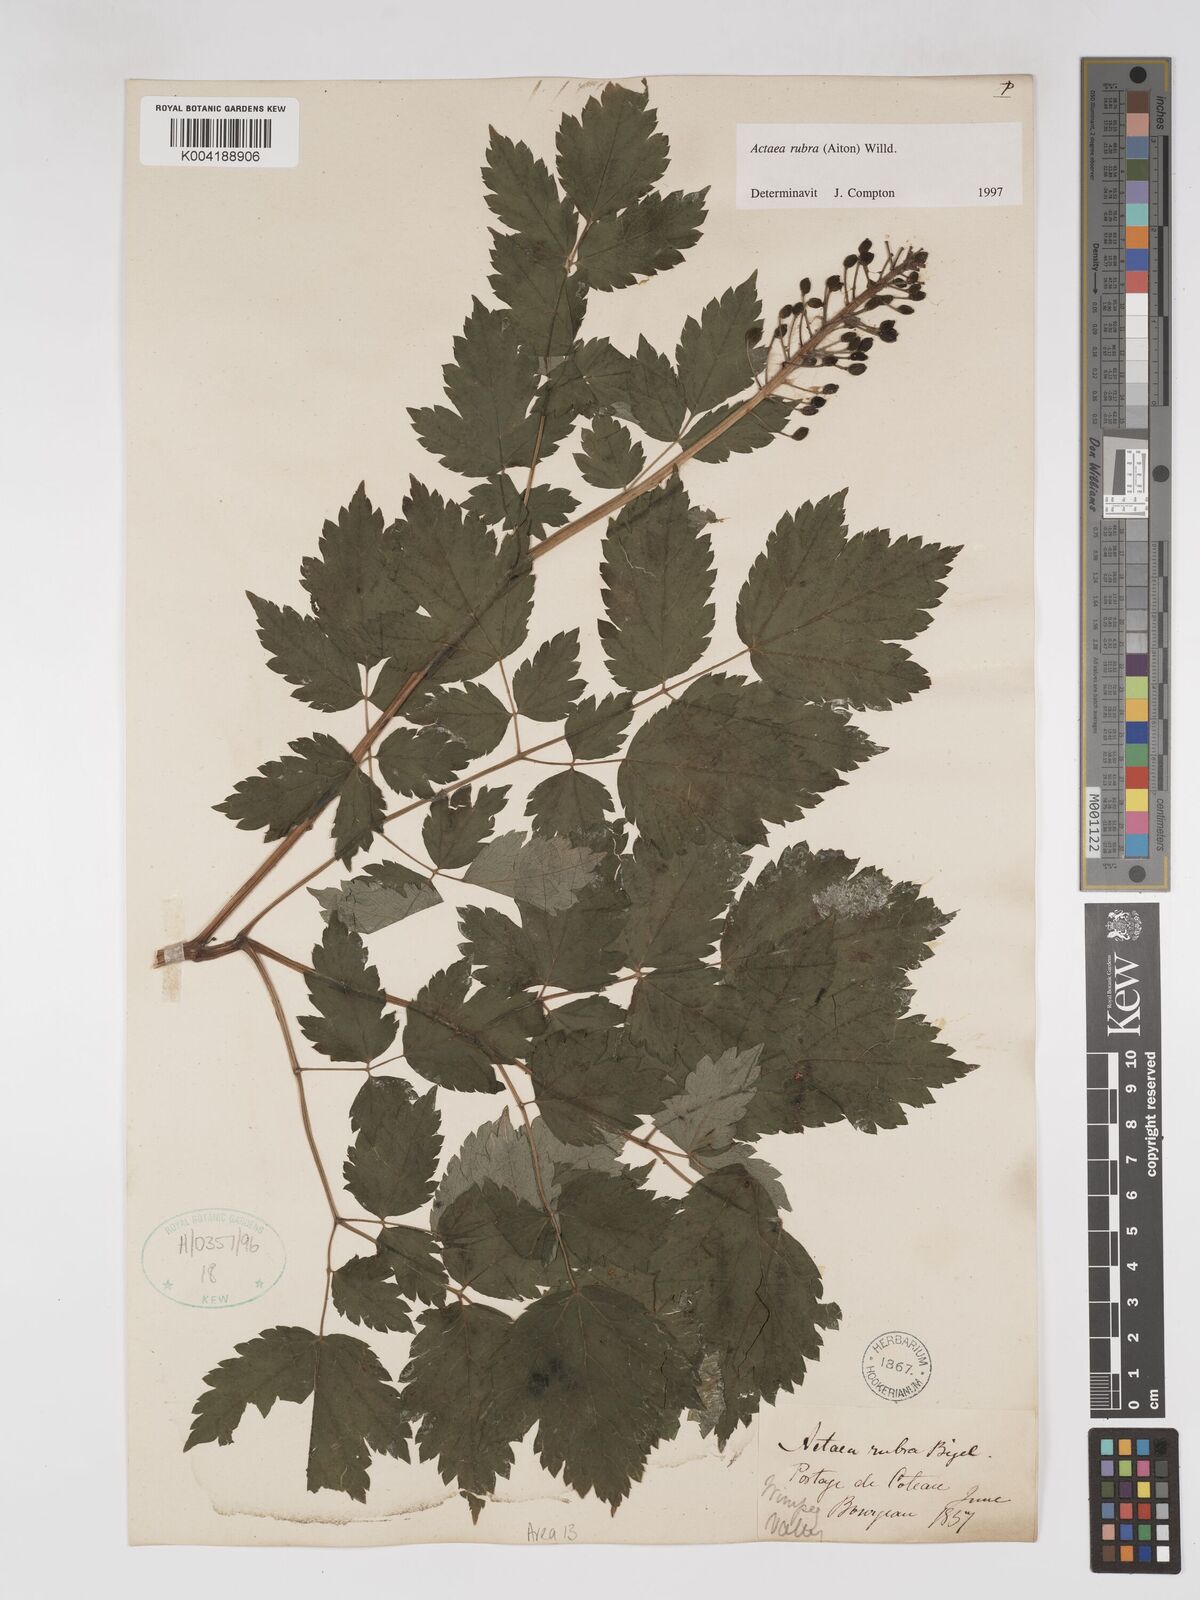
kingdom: Plantae
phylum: Tracheophyta
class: Magnoliopsida
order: Ranunculales
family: Ranunculaceae
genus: Actaea
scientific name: Actaea rubra
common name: Red baneberry
